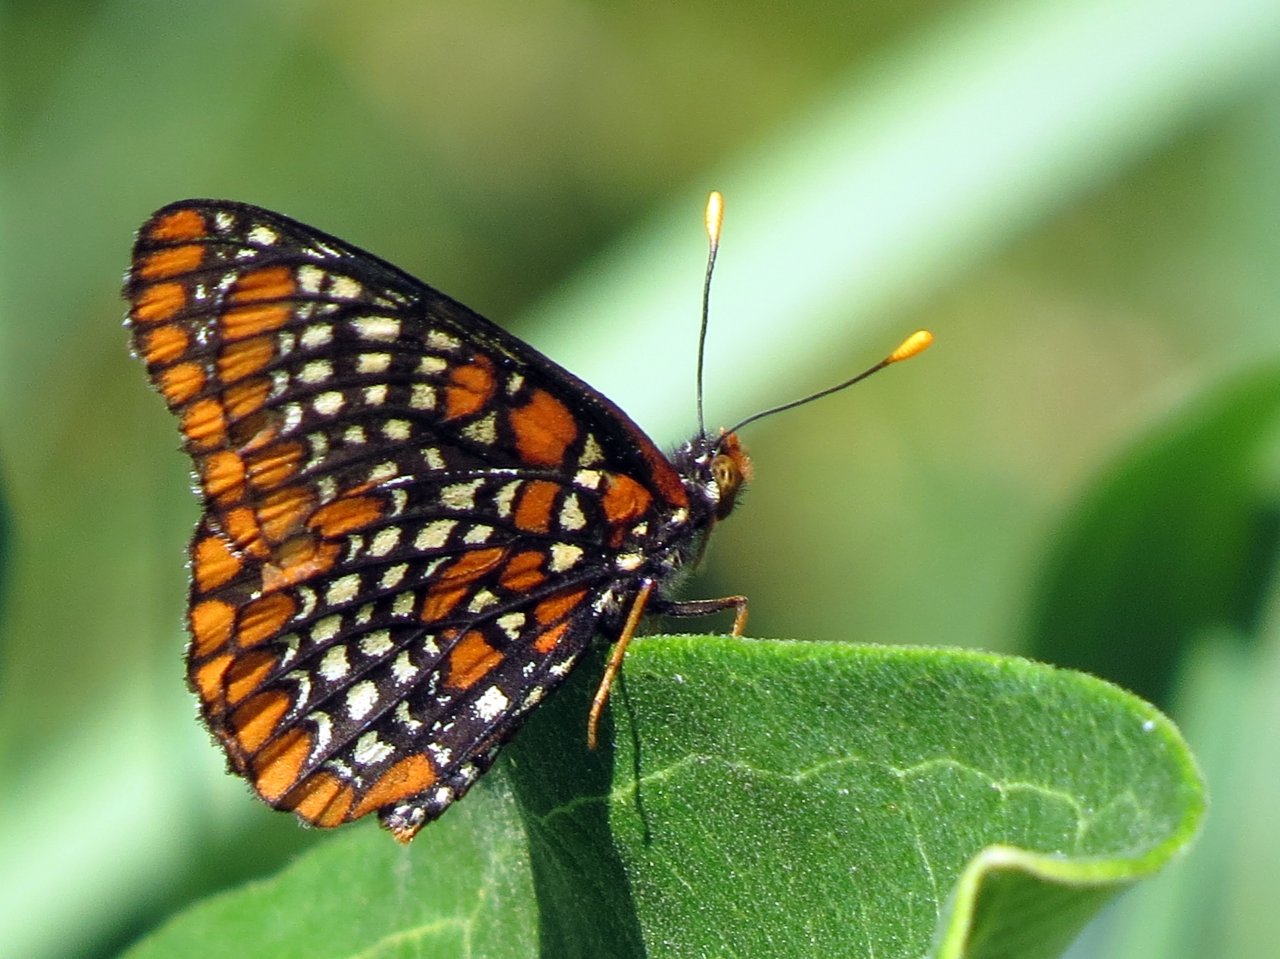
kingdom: Animalia
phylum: Arthropoda
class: Insecta
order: Lepidoptera
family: Nymphalidae
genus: Euphydryas
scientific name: Euphydryas phaeton
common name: Baltimore Checkerspot
